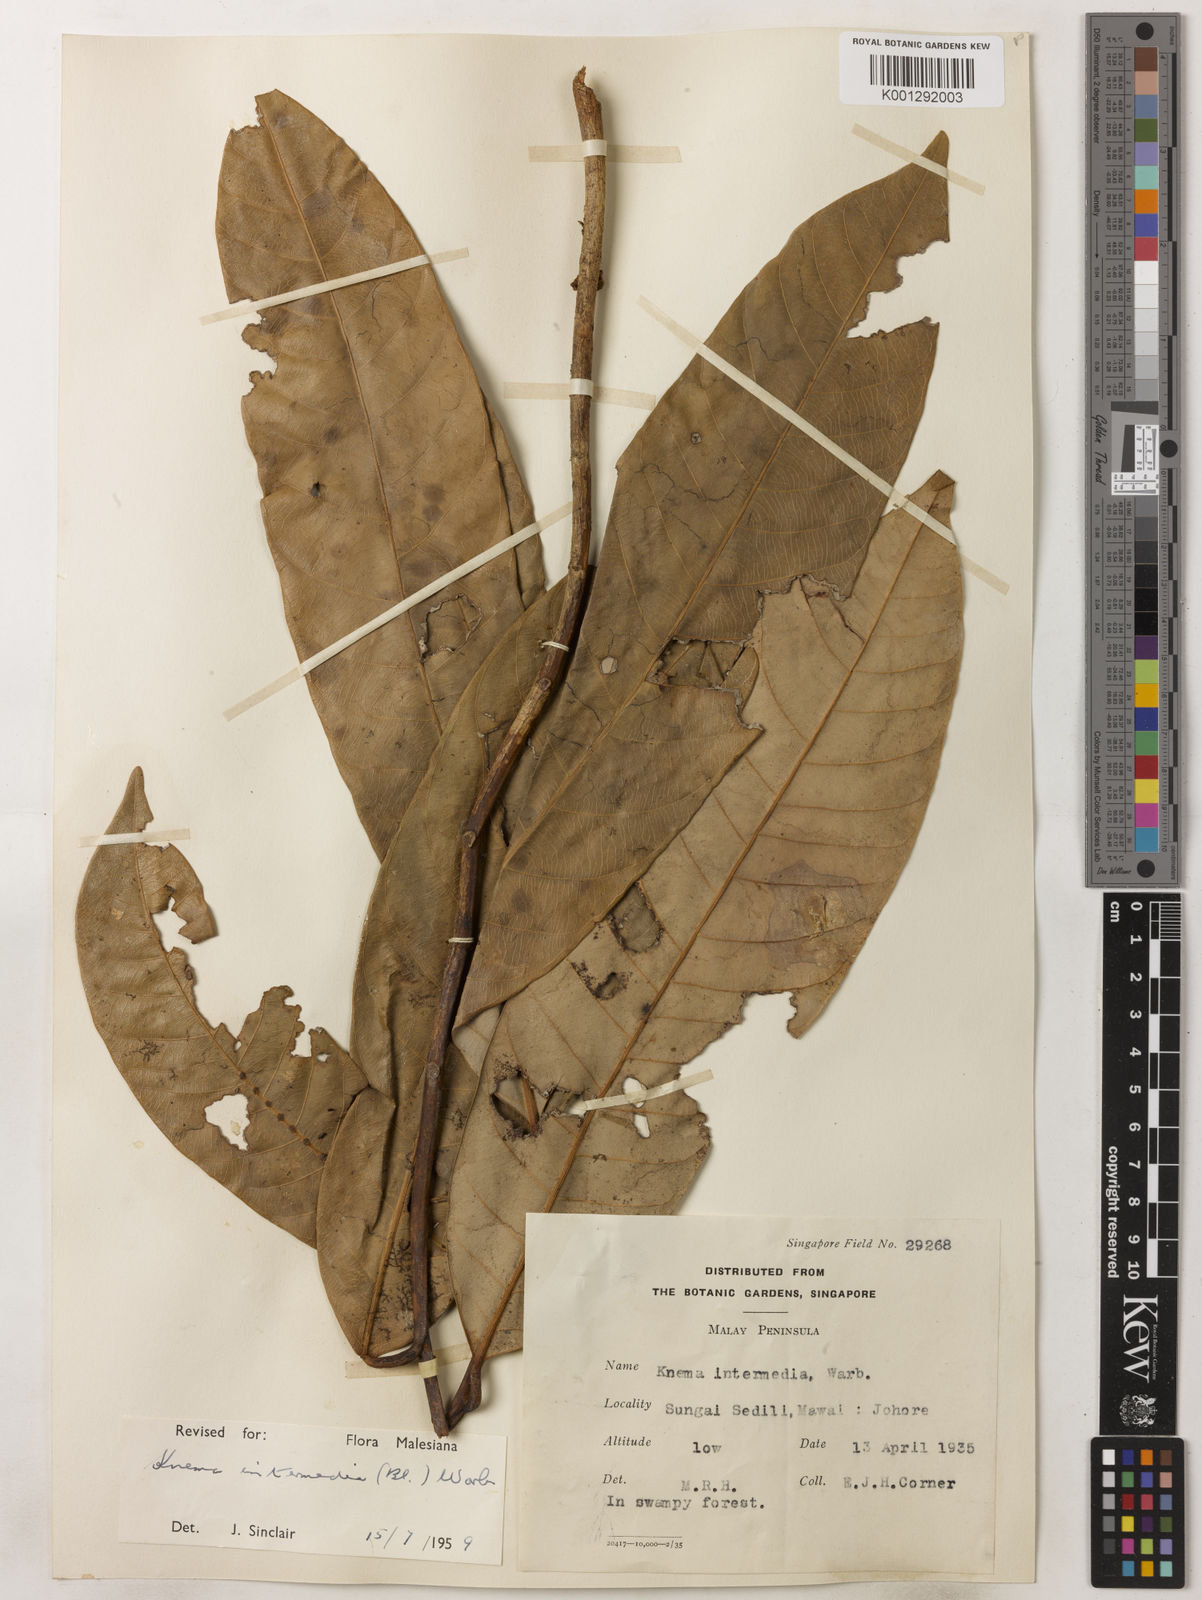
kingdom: Plantae
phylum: Tracheophyta
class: Magnoliopsida
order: Magnoliales
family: Myristicaceae
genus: Knema
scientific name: Knema intermedia
